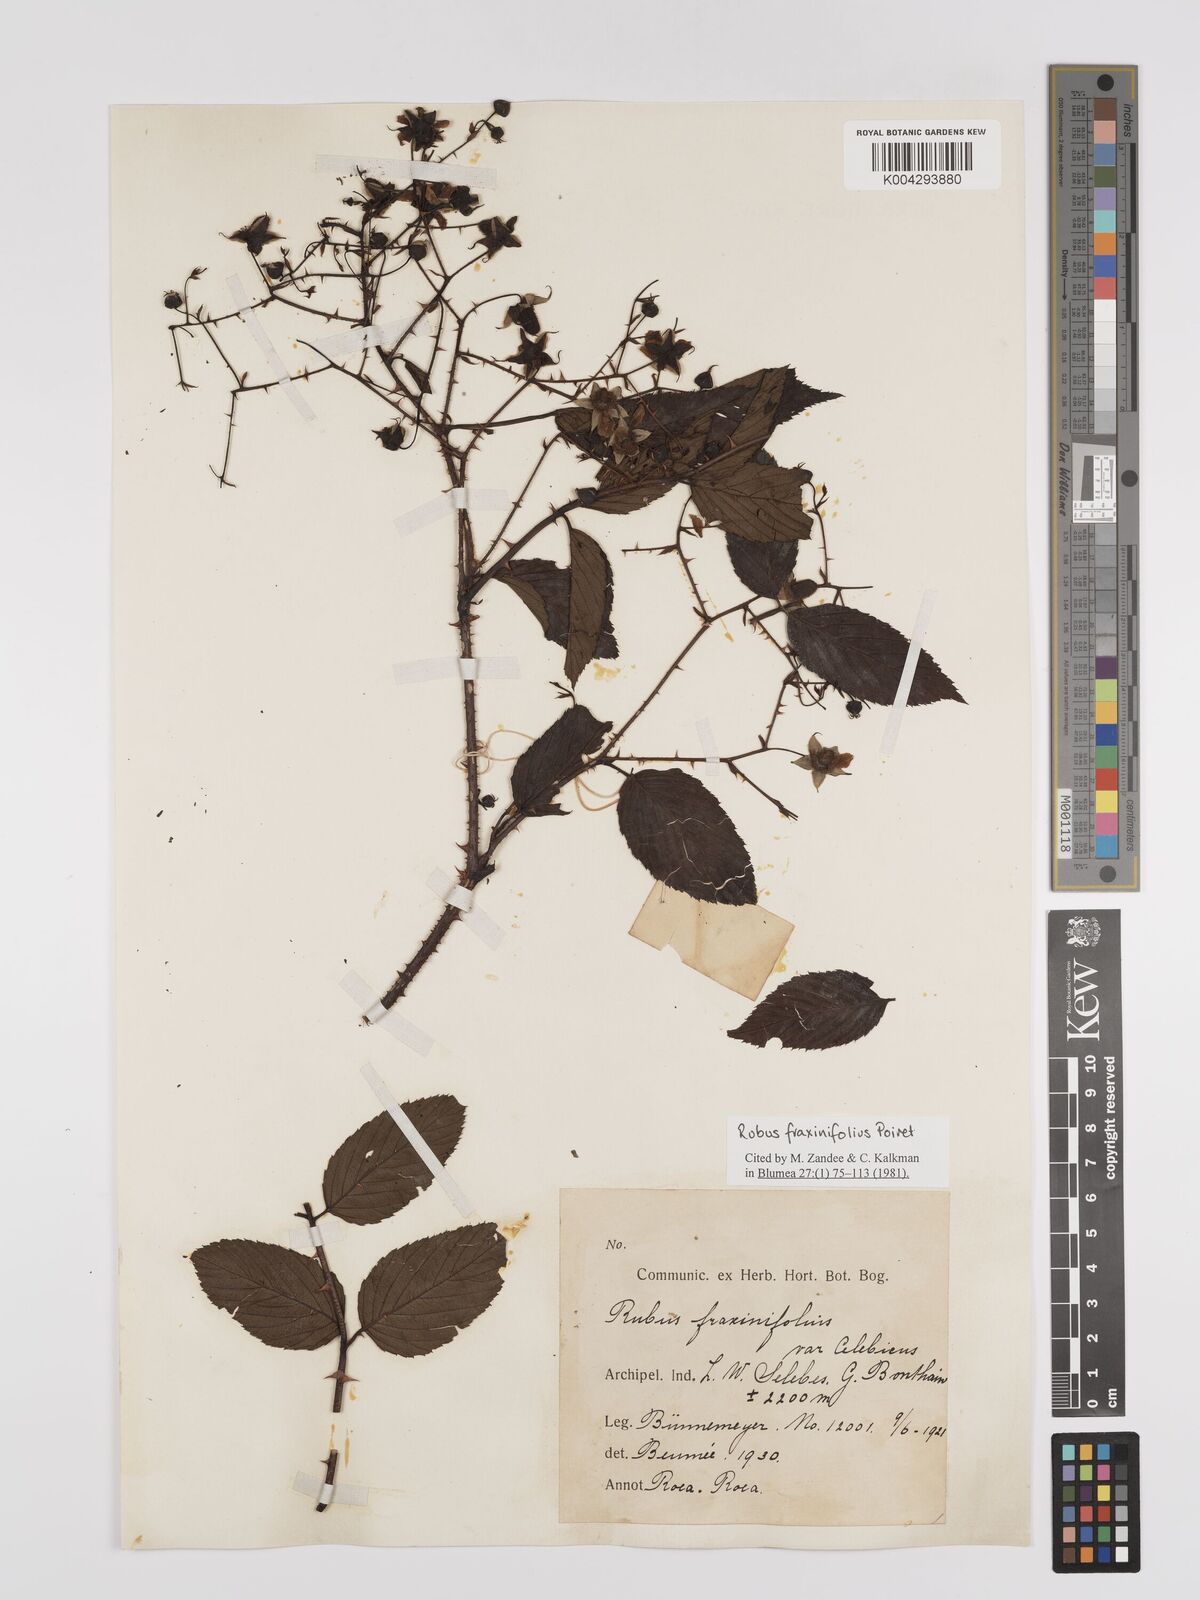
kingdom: Plantae
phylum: Tracheophyta
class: Magnoliopsida
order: Rosales
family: Rosaceae
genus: Rubus
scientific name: Rubus fraxinifolius
